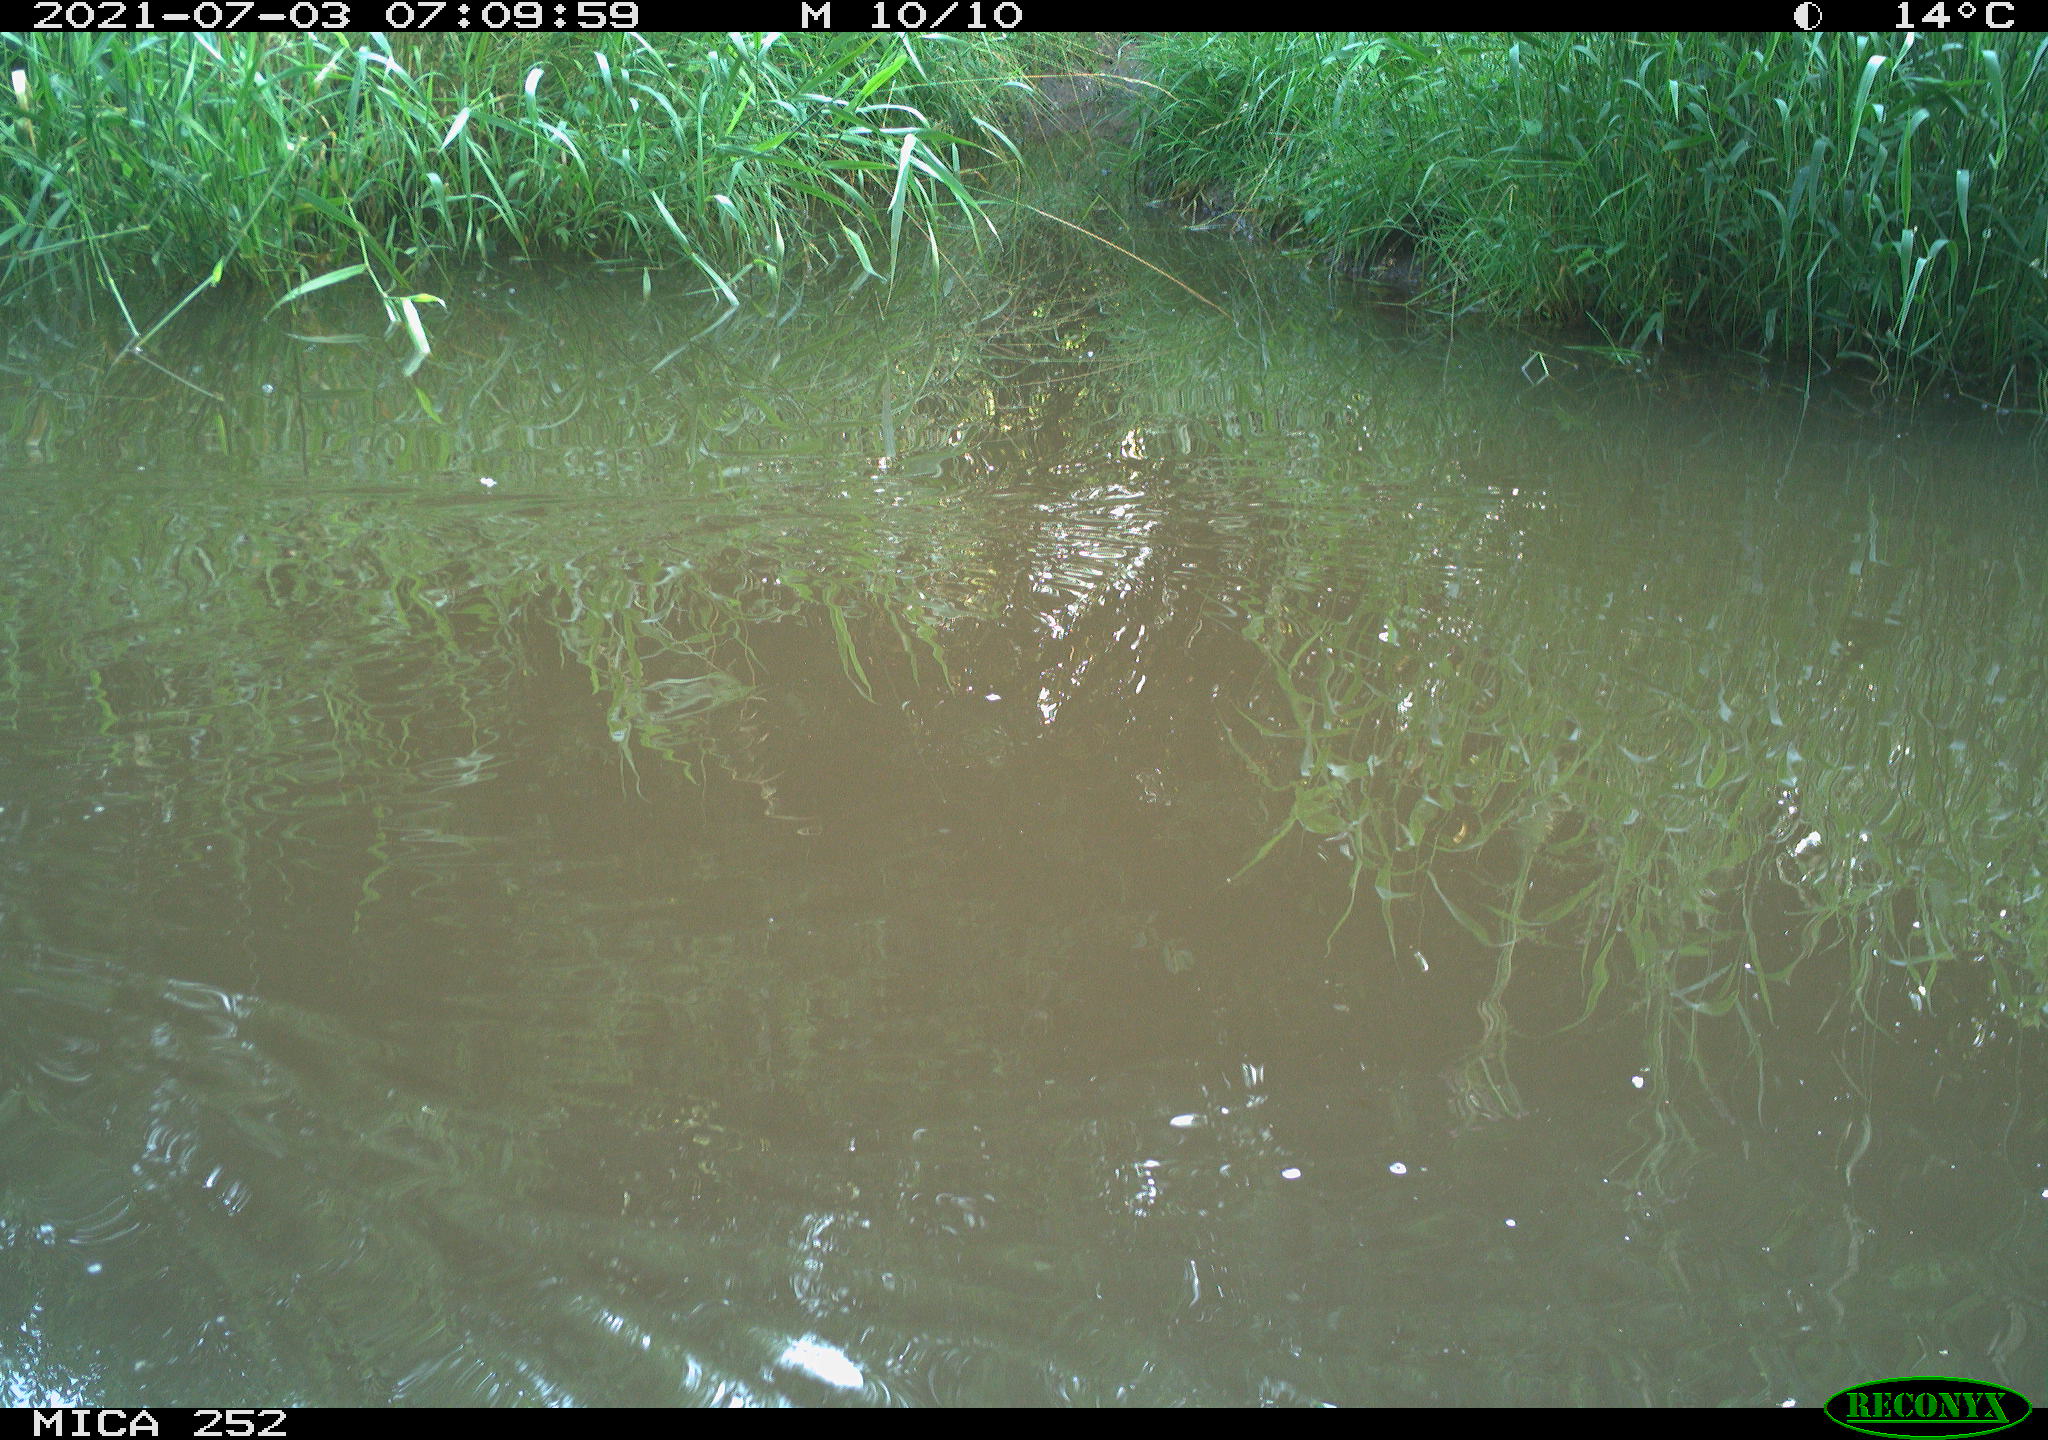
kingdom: Animalia
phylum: Chordata
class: Aves
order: Anseriformes
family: Anatidae
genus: Anas
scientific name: Anas
